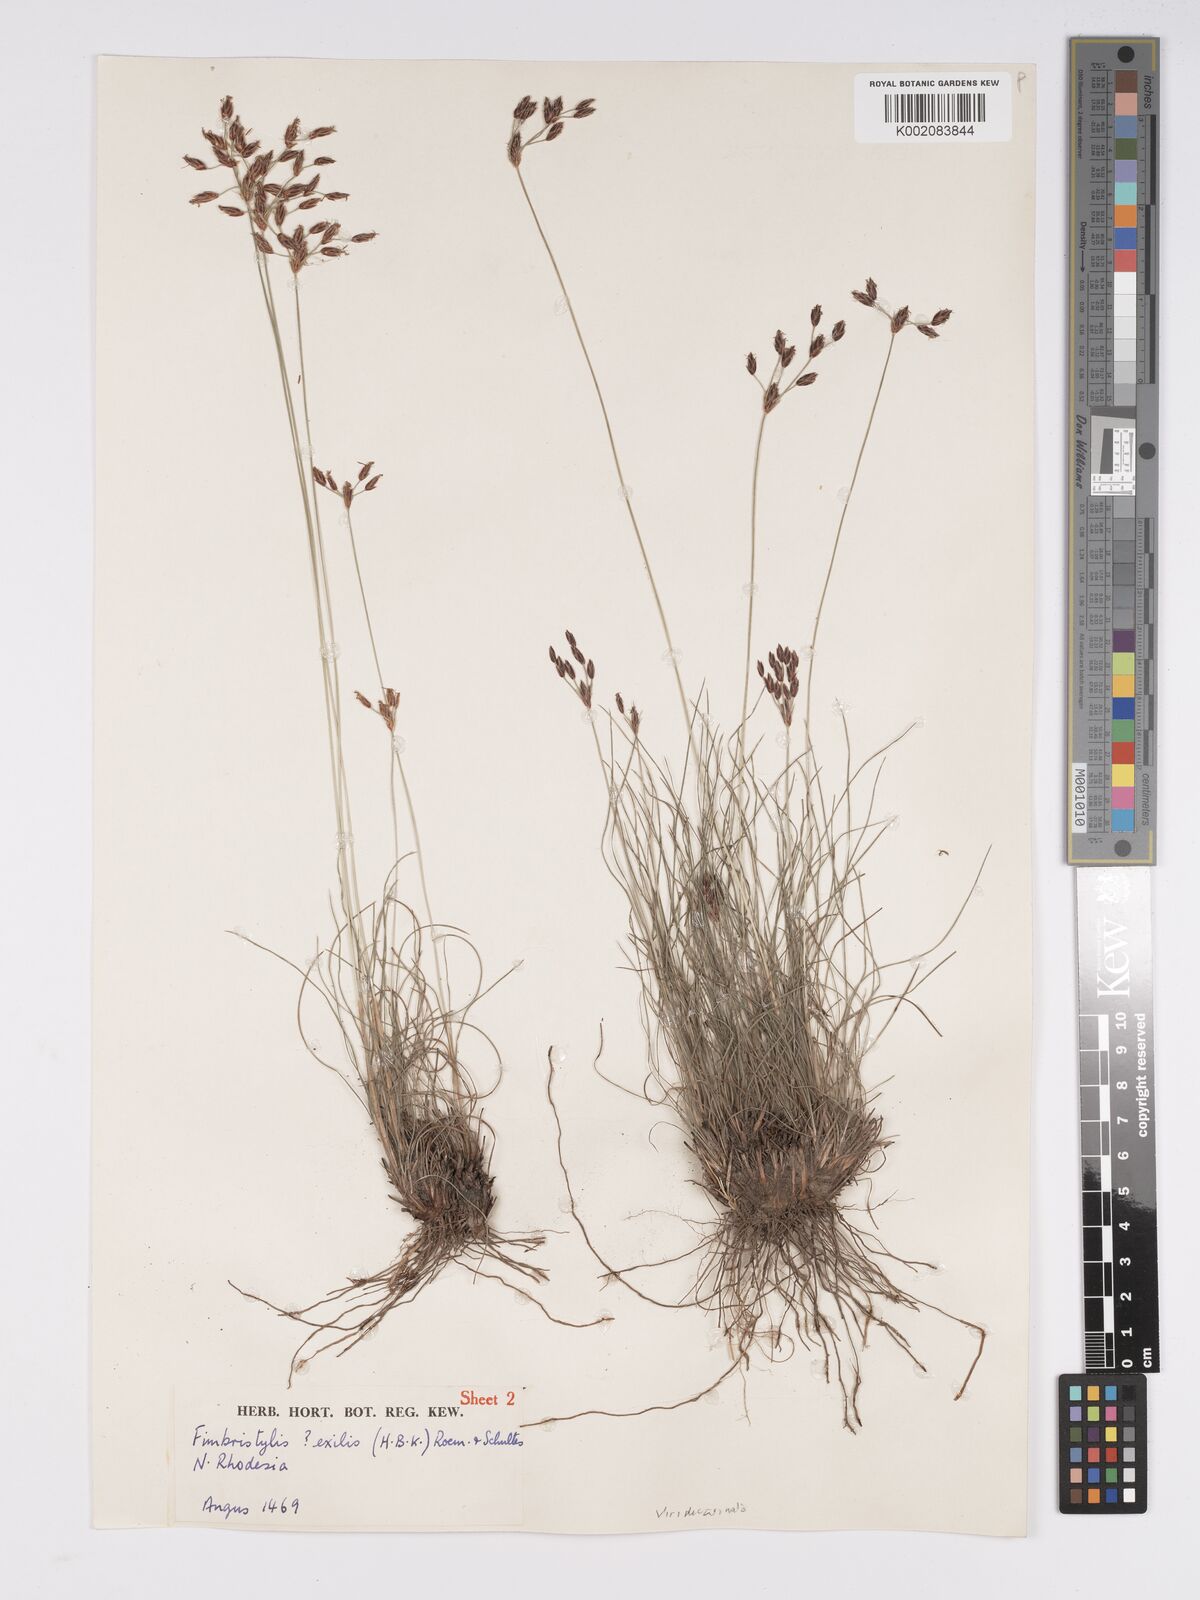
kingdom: Plantae
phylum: Tracheophyta
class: Liliopsida
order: Poales
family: Cyperaceae
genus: Bulbostylis
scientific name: Bulbostylis hispidula
